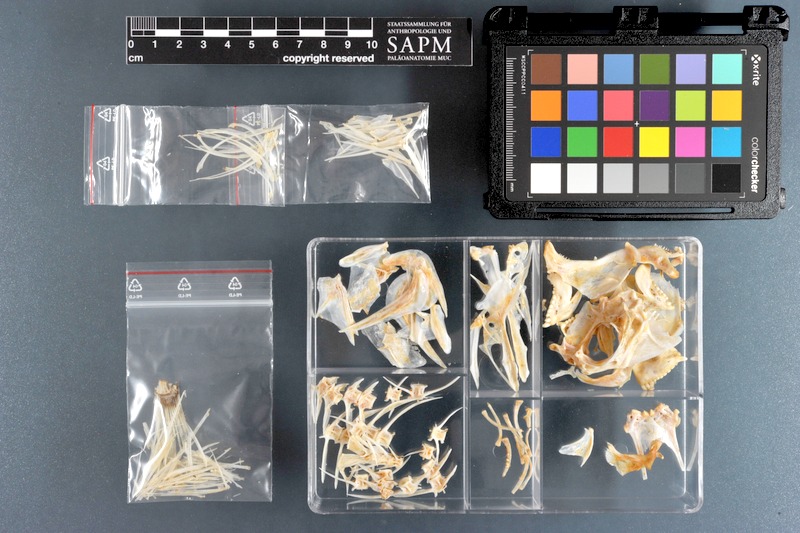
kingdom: Animalia
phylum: Chordata
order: Perciformes
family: Sparidae
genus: Rhabdosargus
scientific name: Rhabdosargus sarba
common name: Goldlined seabream
